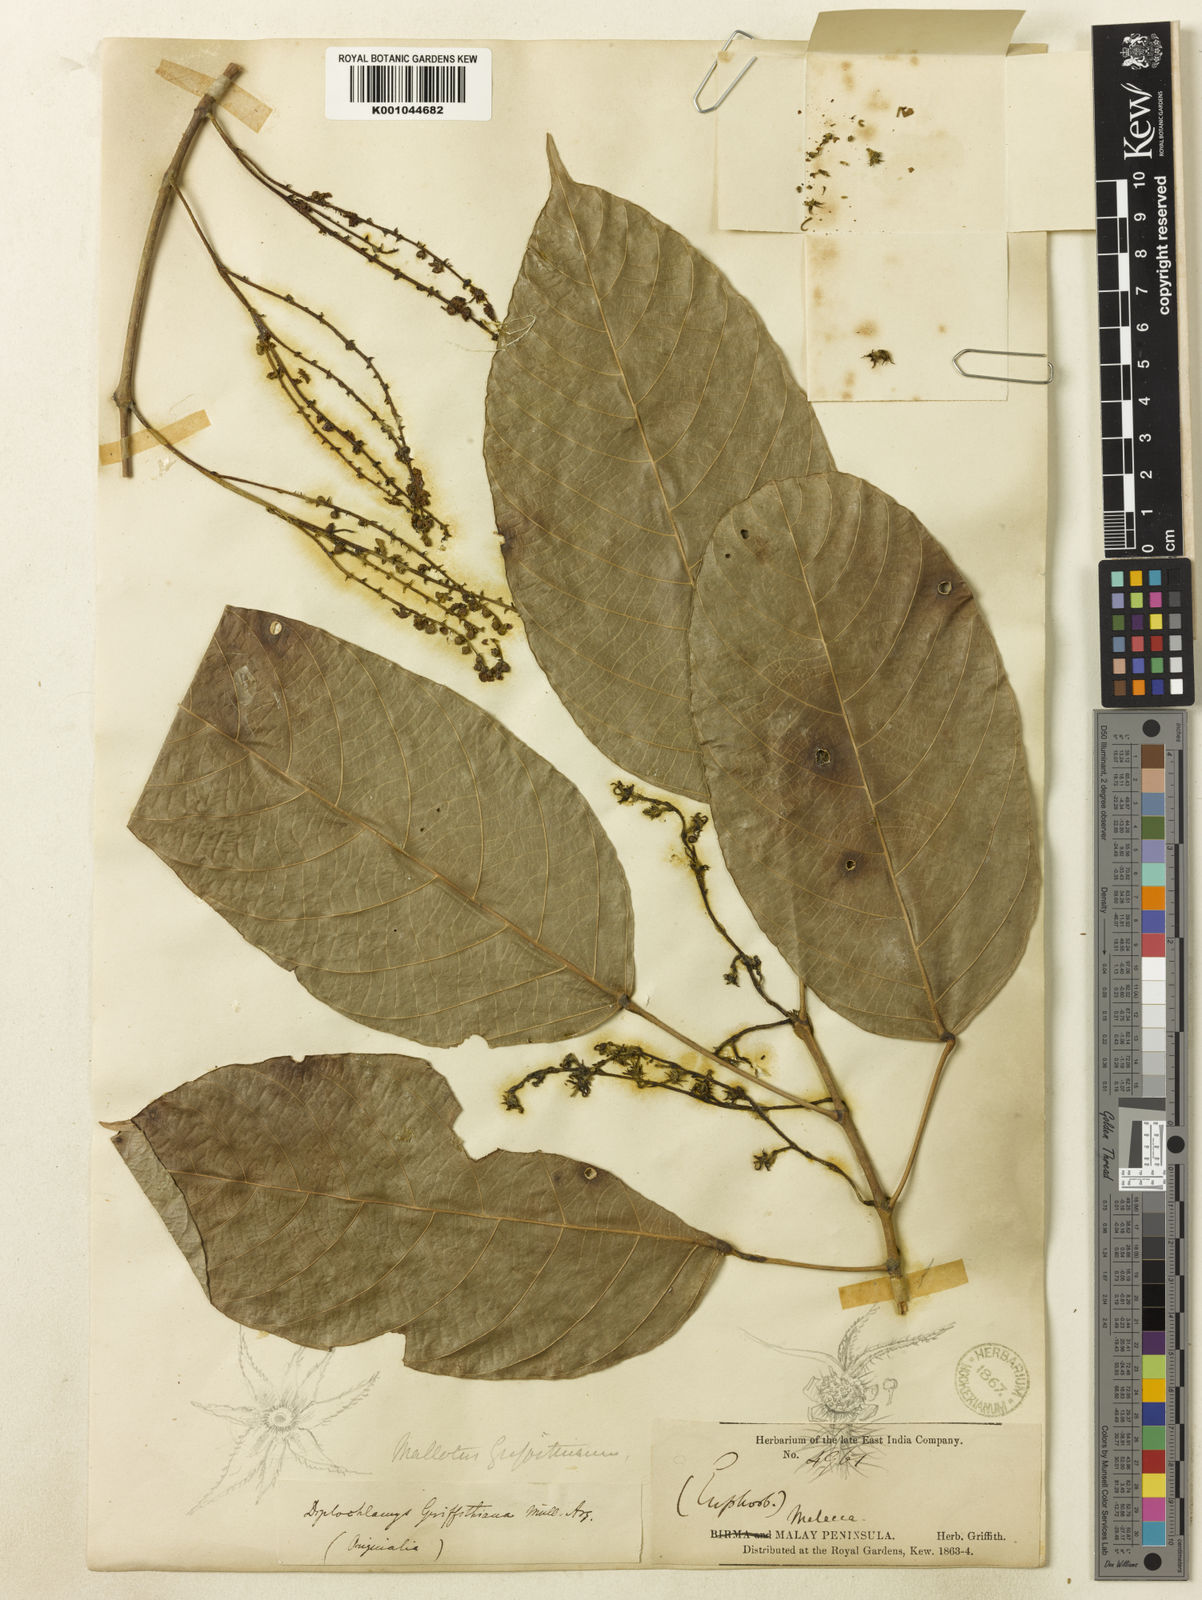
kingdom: Plantae
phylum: Tracheophyta
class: Magnoliopsida
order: Malpighiales
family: Euphorbiaceae
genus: Hancea
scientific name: Hancea griffithiana
